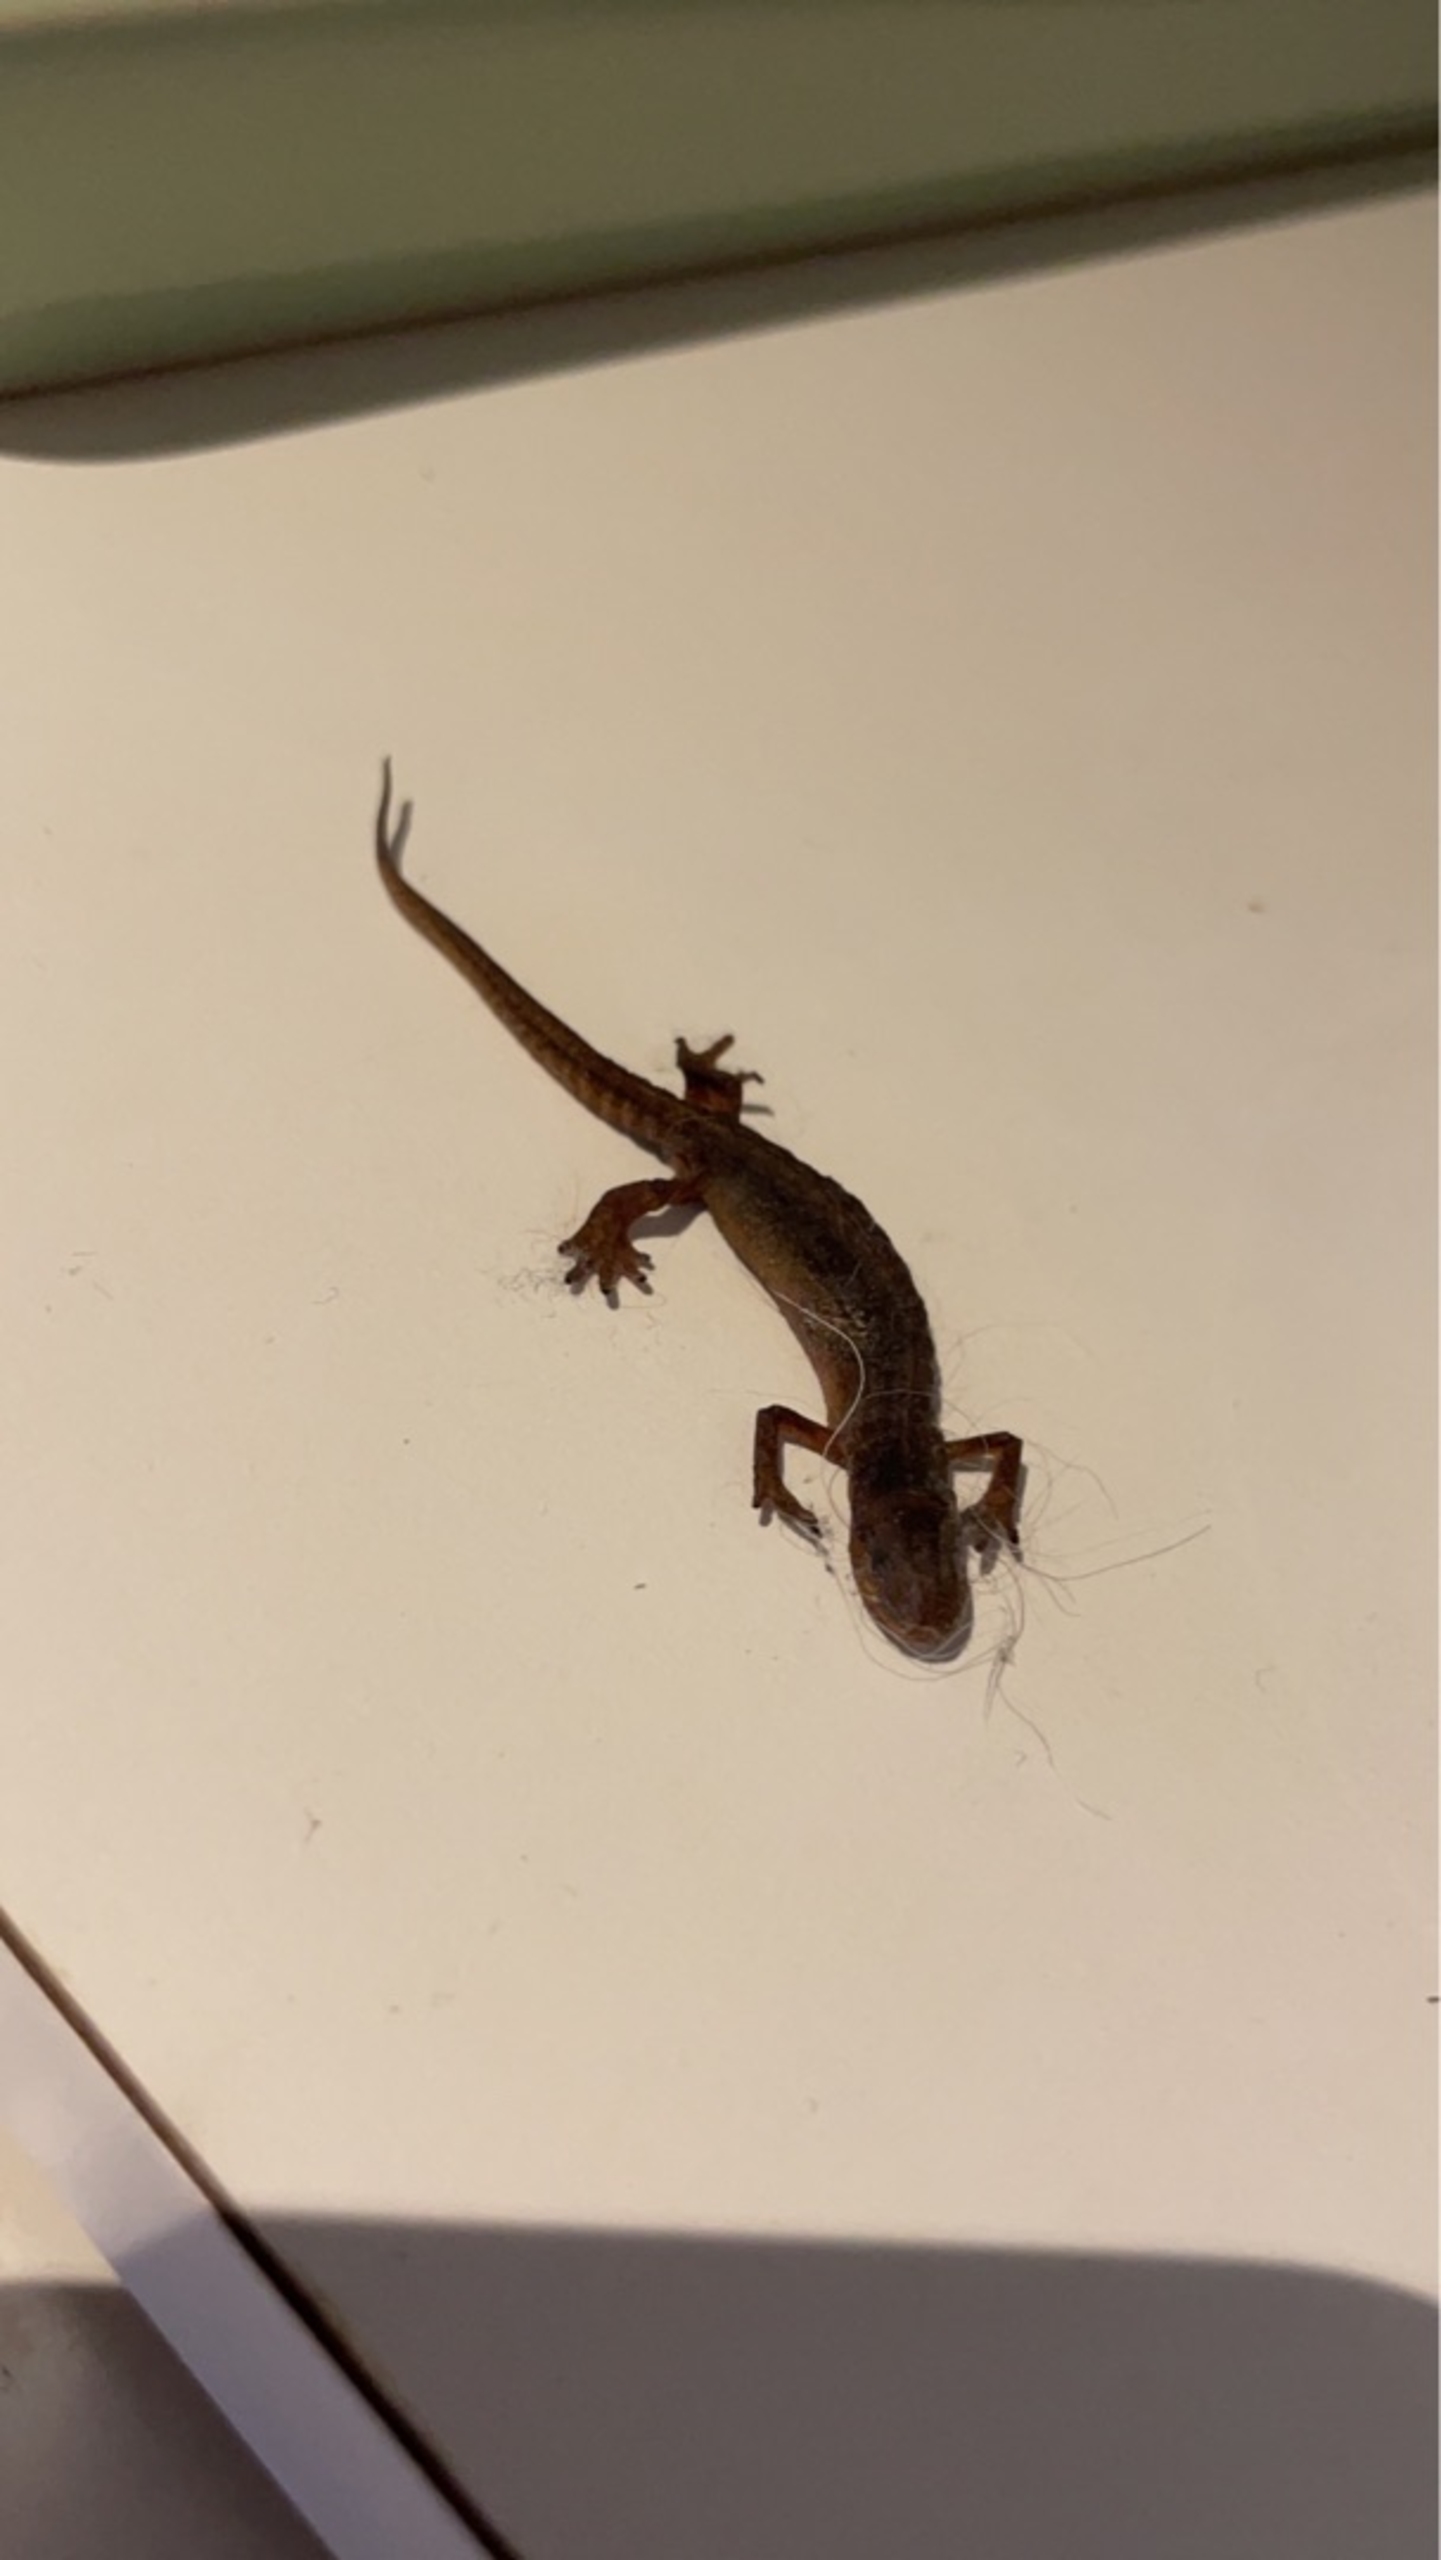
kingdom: Animalia
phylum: Chordata
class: Amphibia
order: Caudata
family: Salamandridae
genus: Lissotriton
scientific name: Lissotriton vulgaris
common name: Lille vandsalamander
